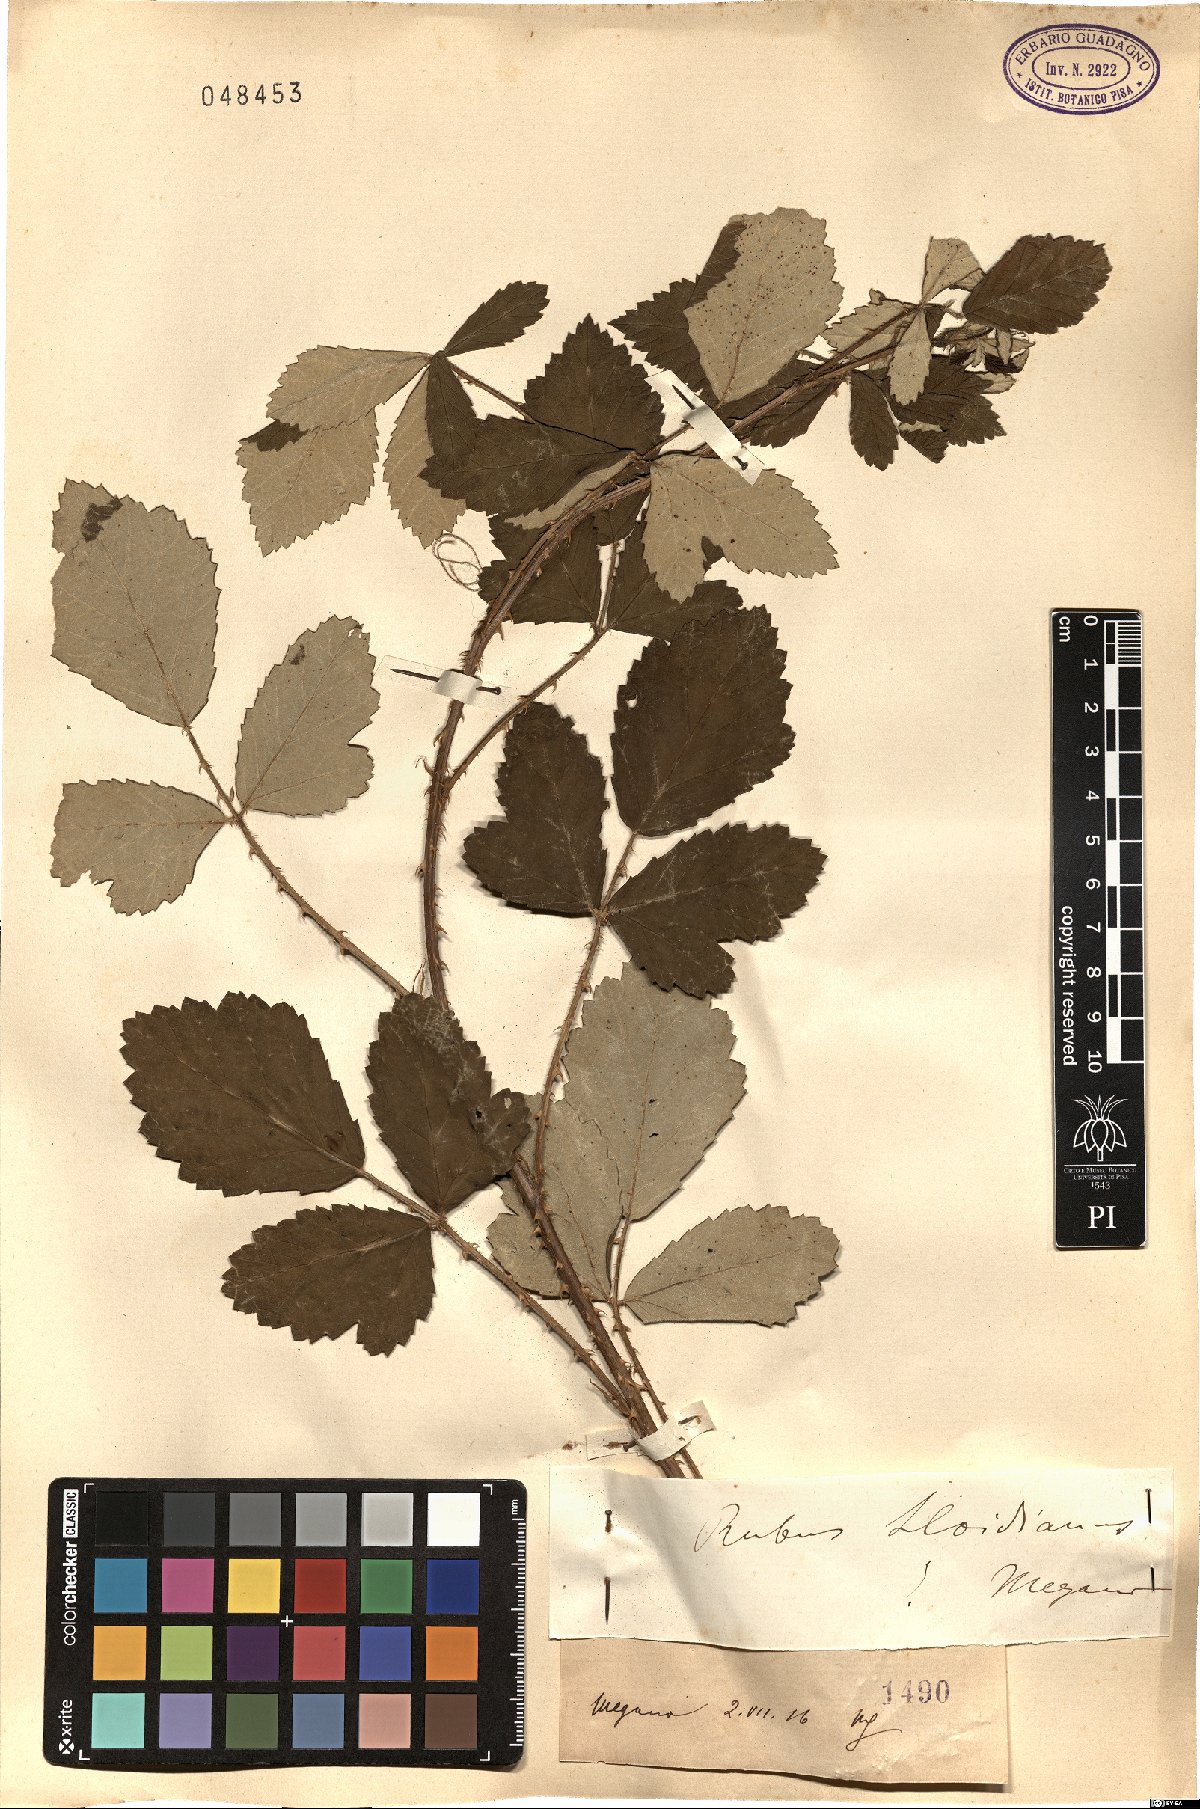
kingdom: Plantae
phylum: Tracheophyta
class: Magnoliopsida
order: Rosales
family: Rosaceae
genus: Rubus
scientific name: Rubus aetnicus
